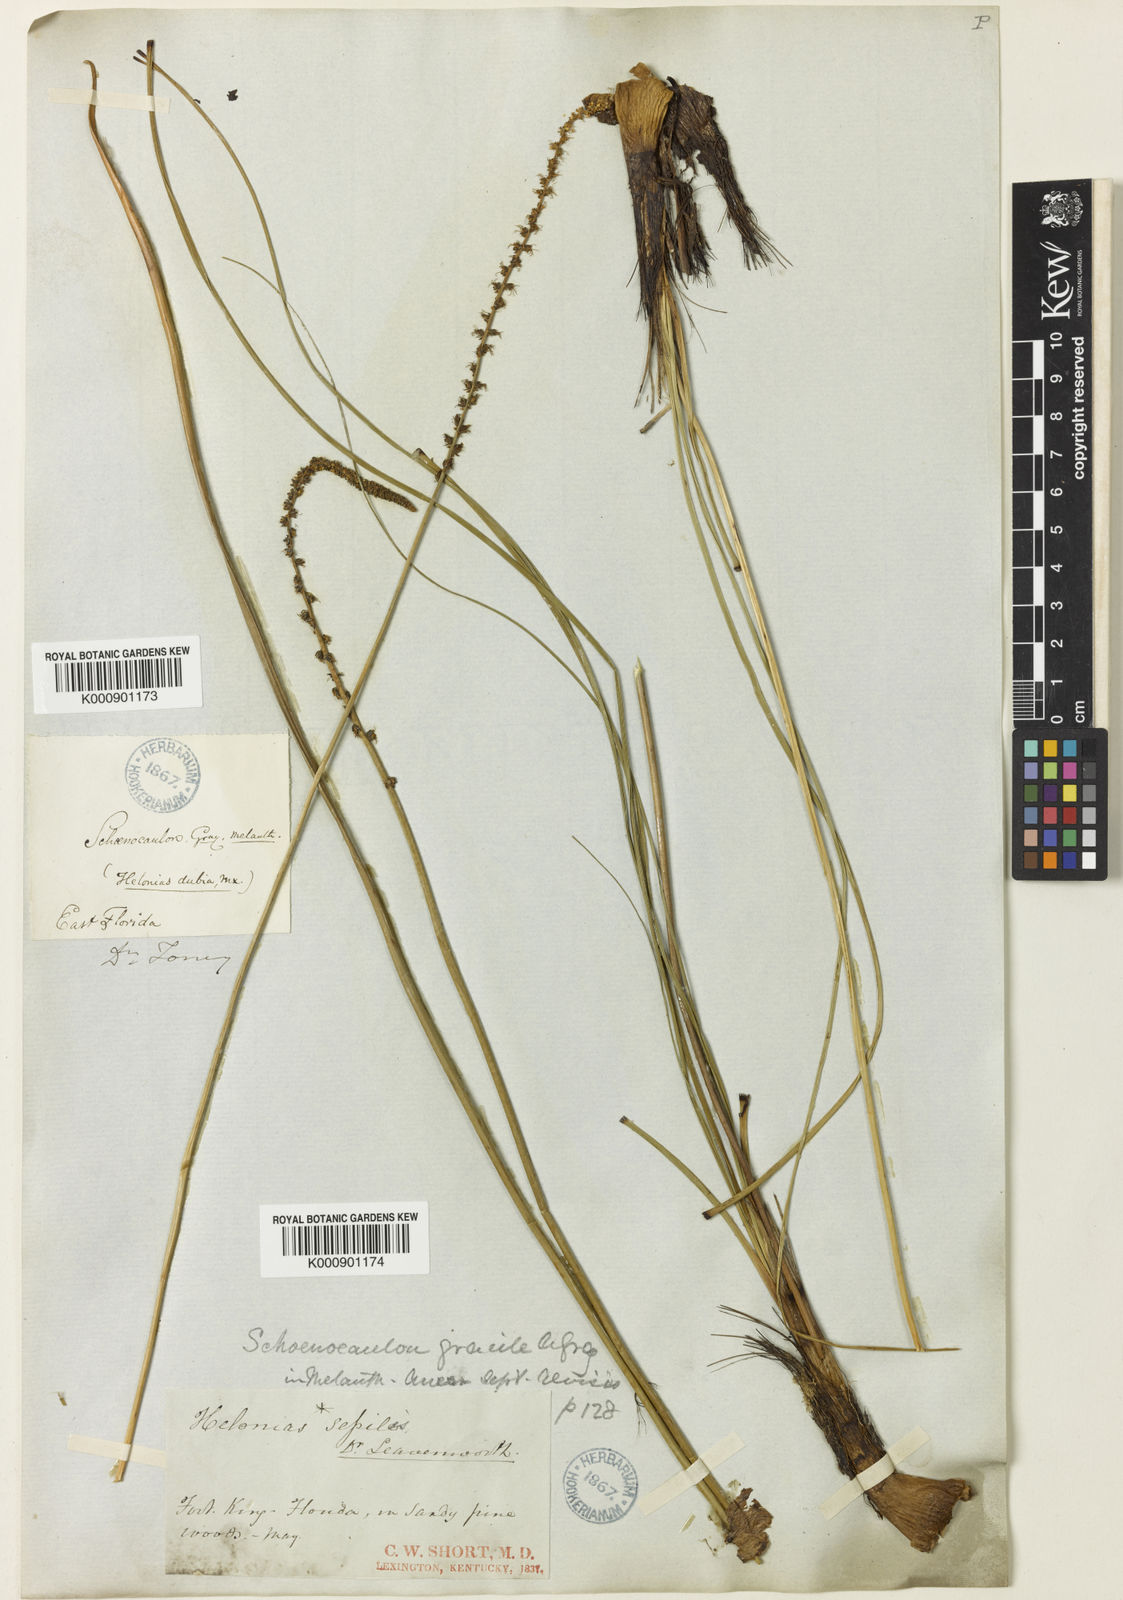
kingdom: Plantae
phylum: Tracheophyta
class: Liliopsida
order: Liliales
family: Melanthiaceae
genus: Schoenocaulon
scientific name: Schoenocaulon dubium
